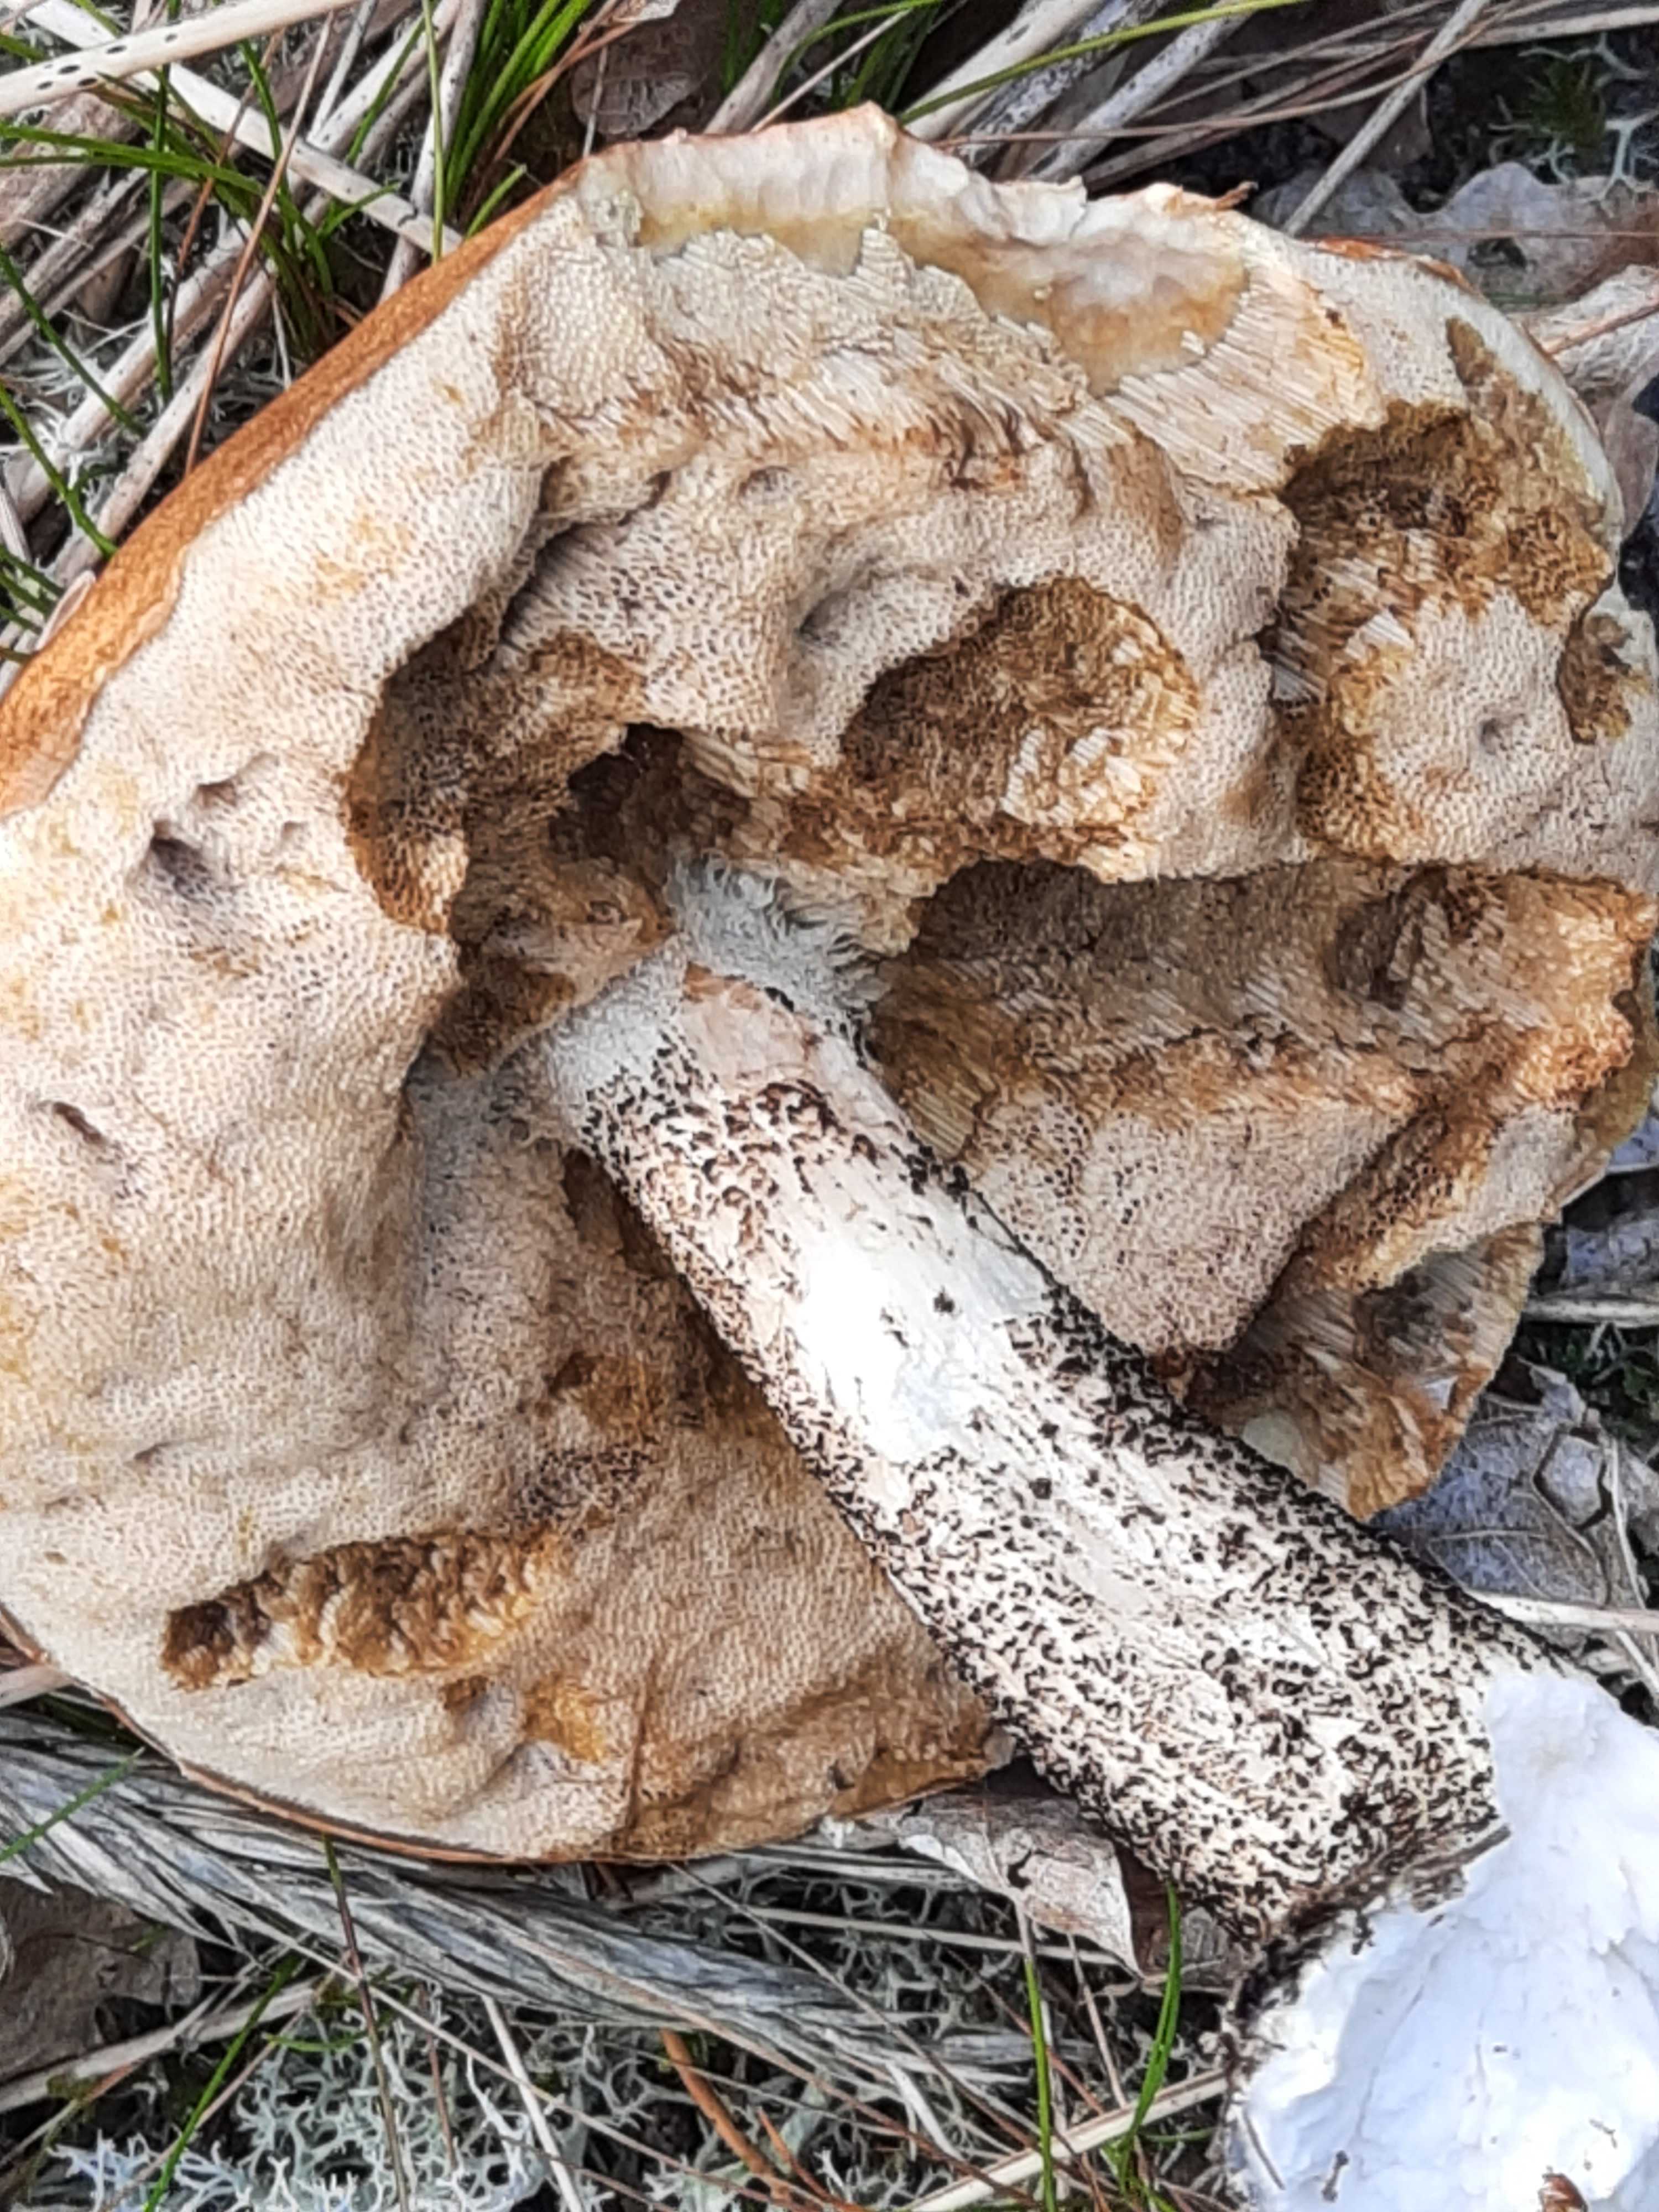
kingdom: Fungi
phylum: Basidiomycota
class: Agaricomycetes
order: Boletales
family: Boletaceae
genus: Leccinum
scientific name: Leccinum versipelle
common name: orange skælrørhat
